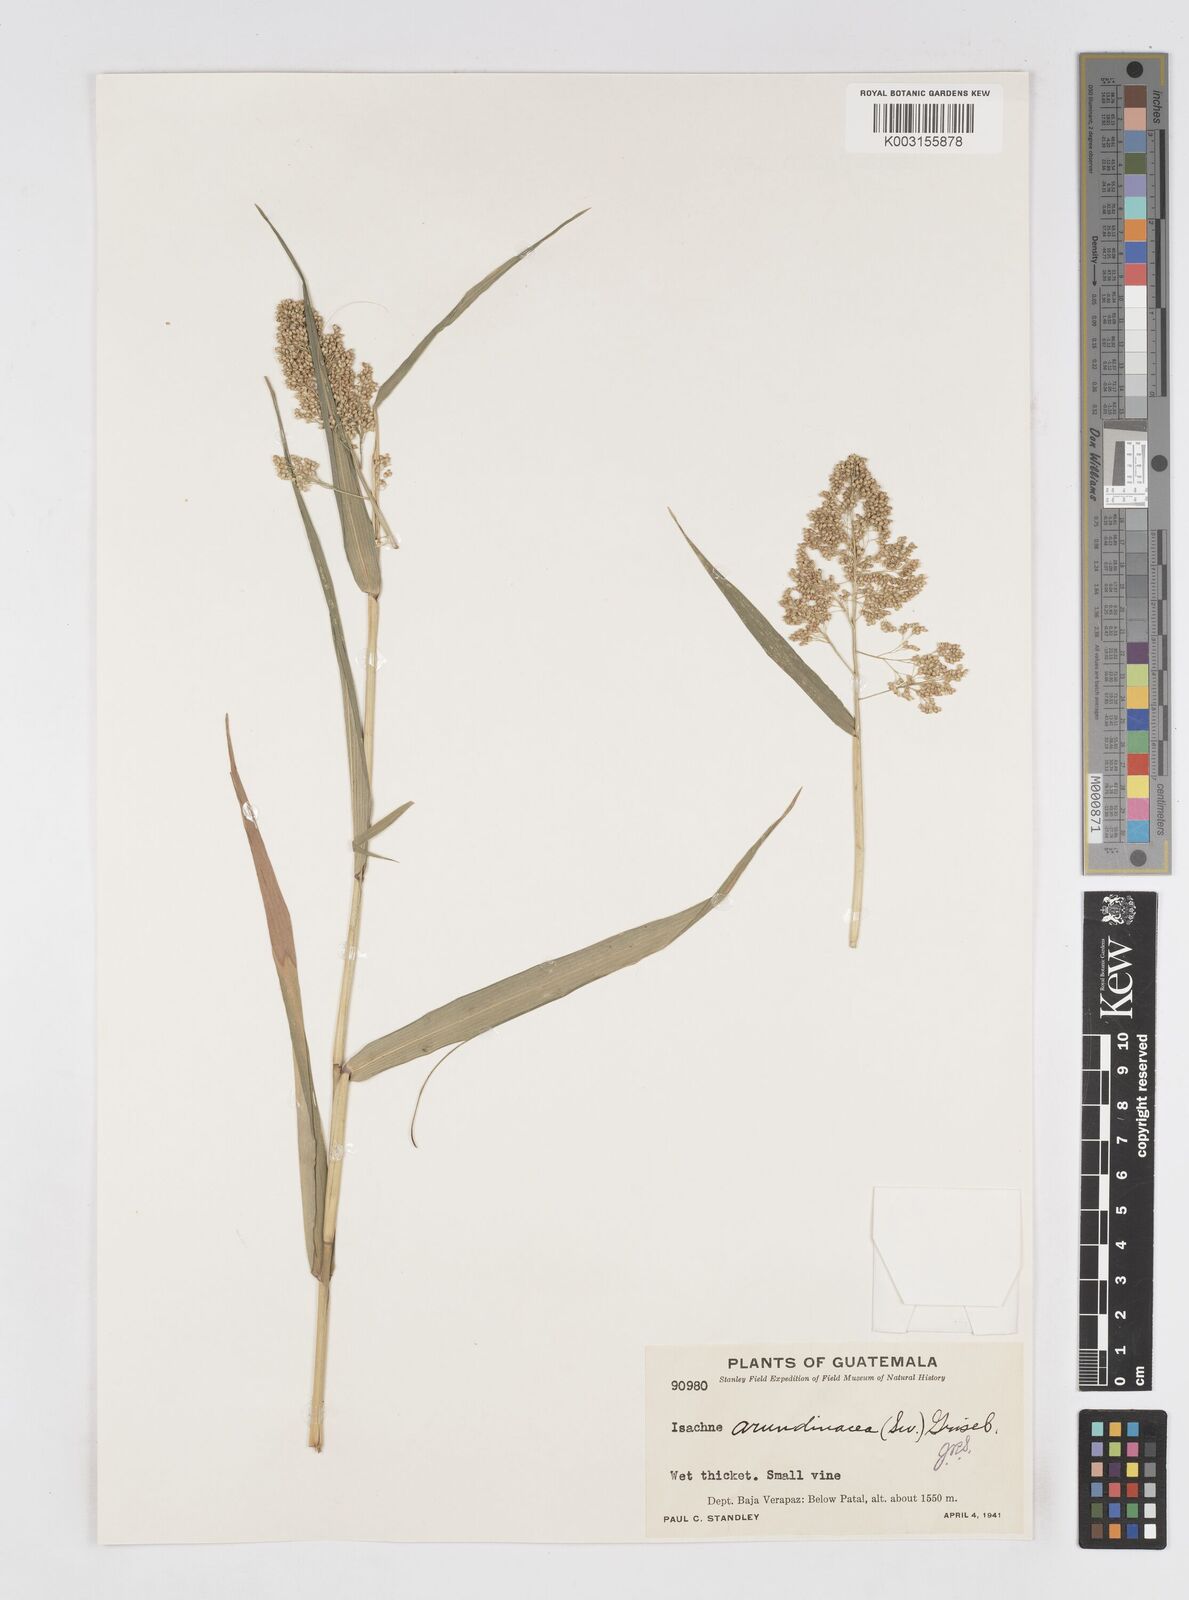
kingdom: Plantae
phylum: Tracheophyta
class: Liliopsida
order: Poales
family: Poaceae
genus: Isachne
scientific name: Isachne arundinacea
